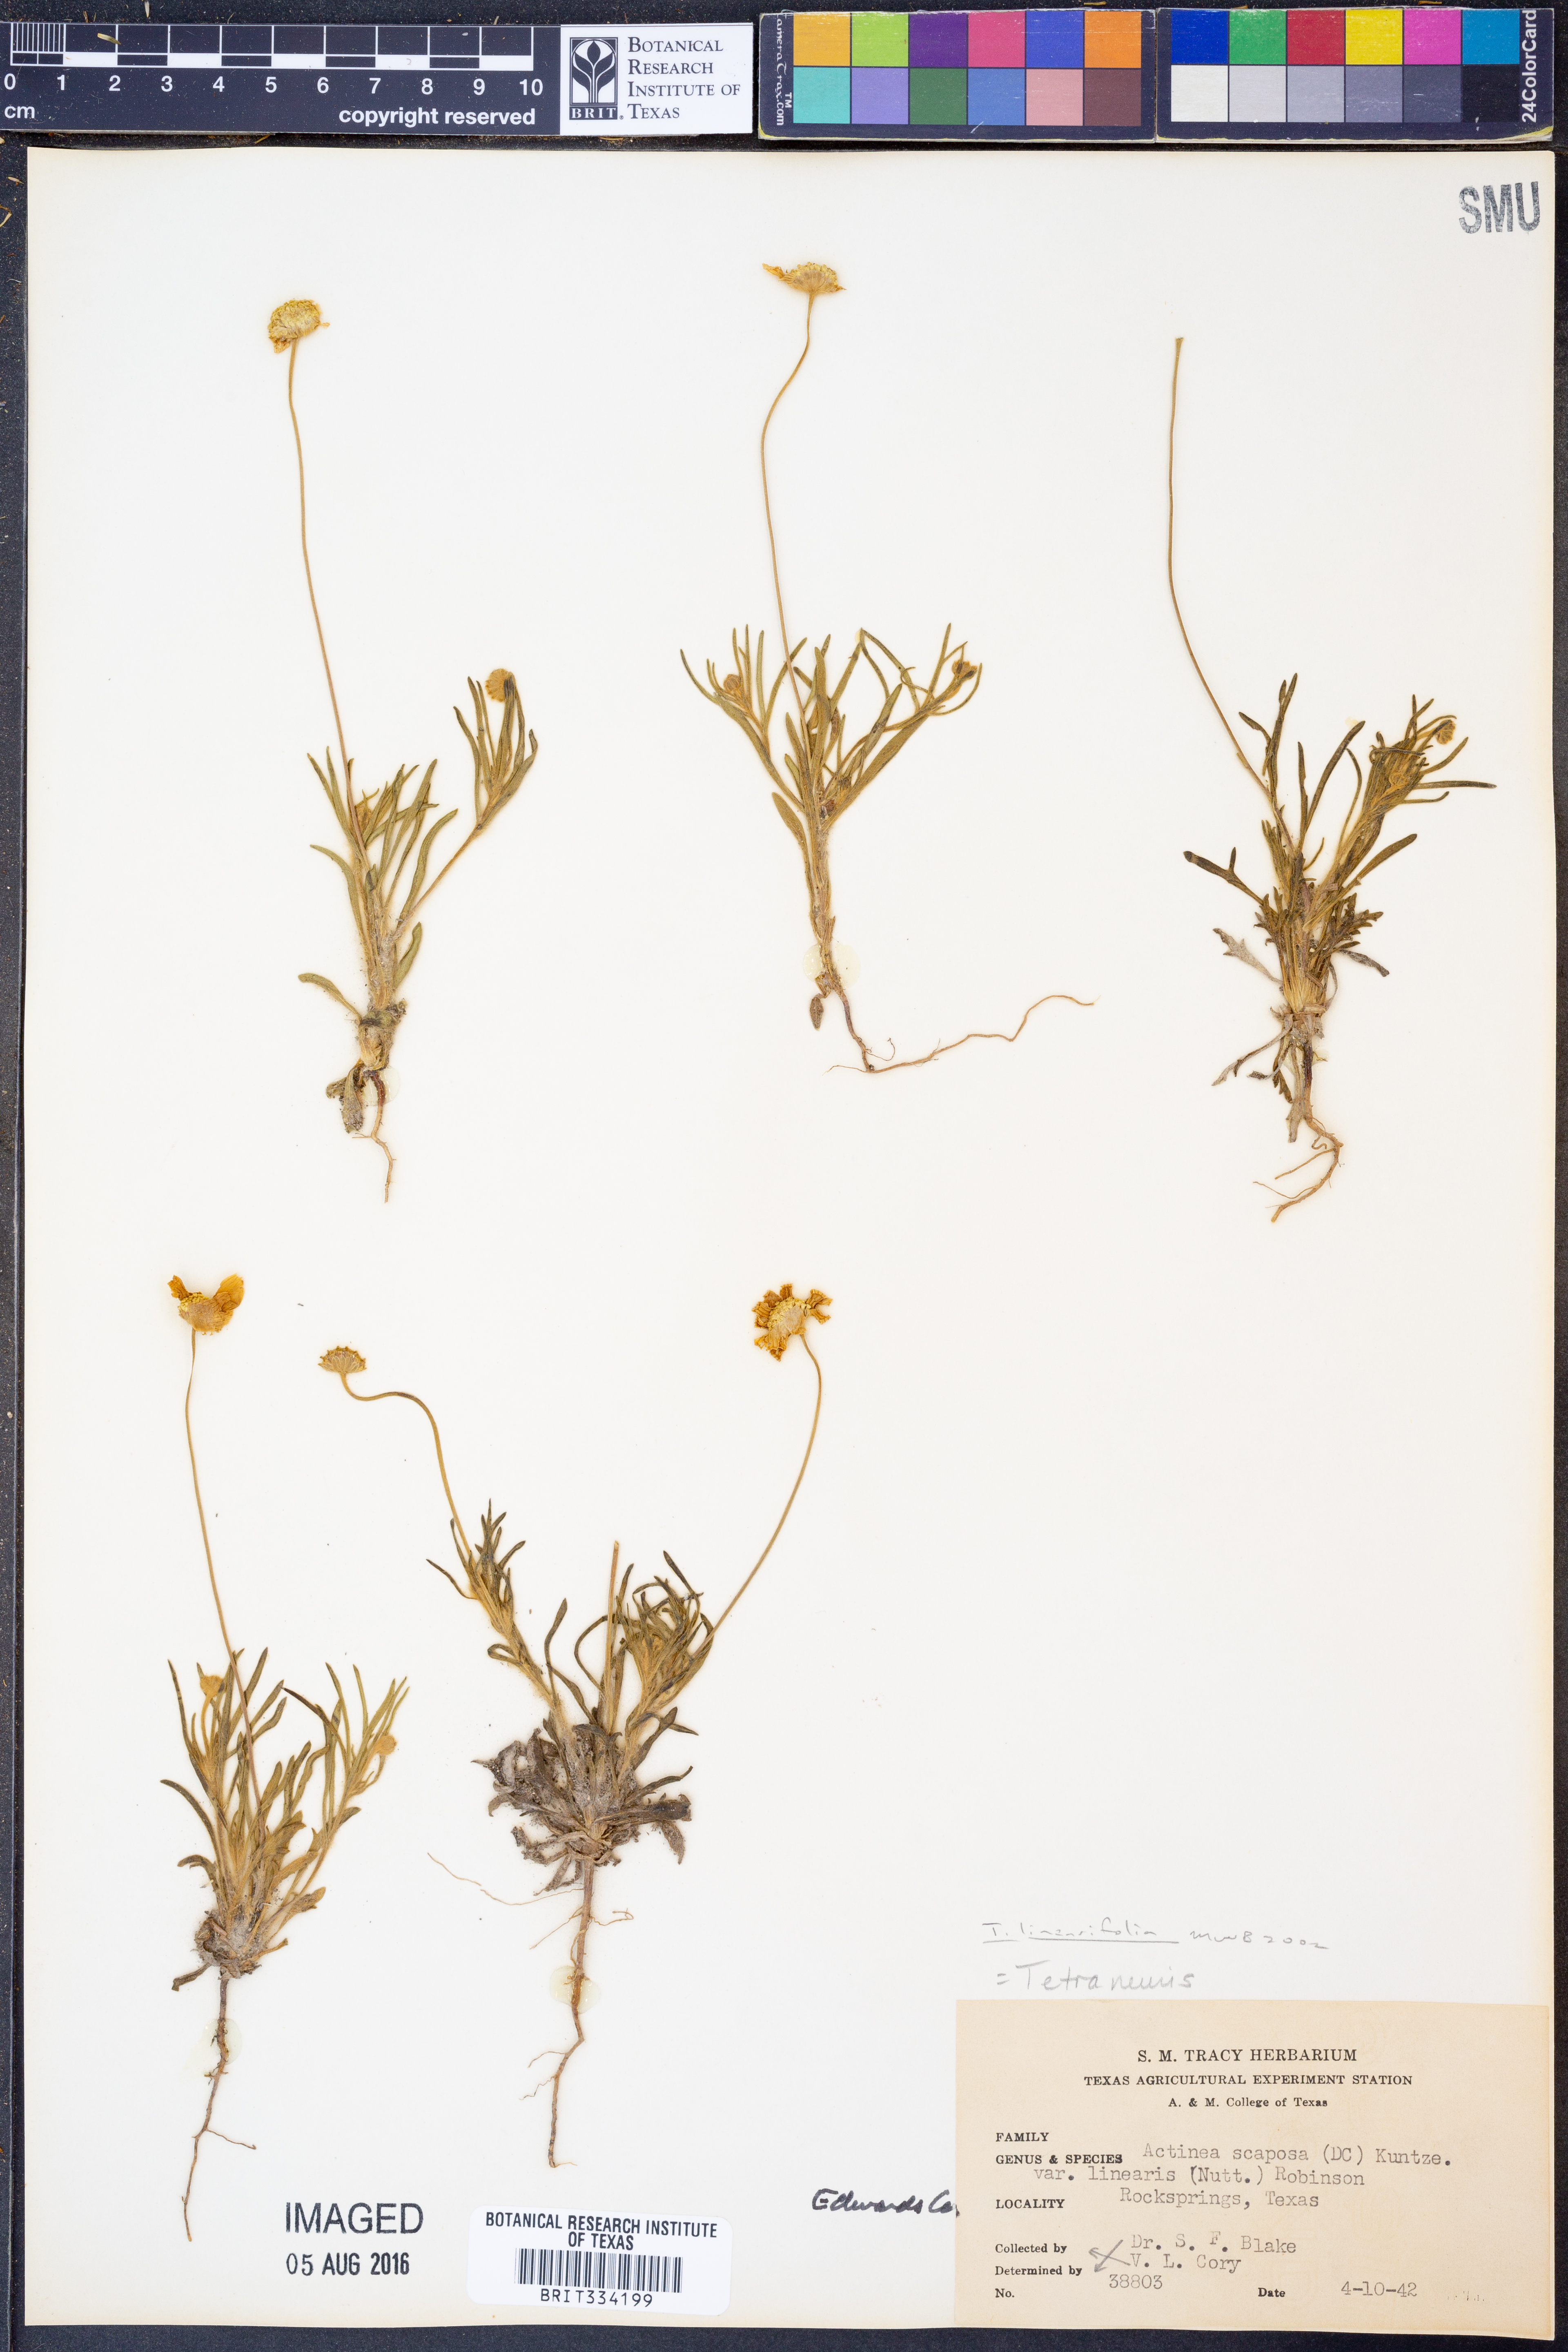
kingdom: Plantae
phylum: Tracheophyta
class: Magnoliopsida
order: Asterales
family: Asteraceae
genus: Tetraneuris
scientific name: Tetraneuris linearifolia
